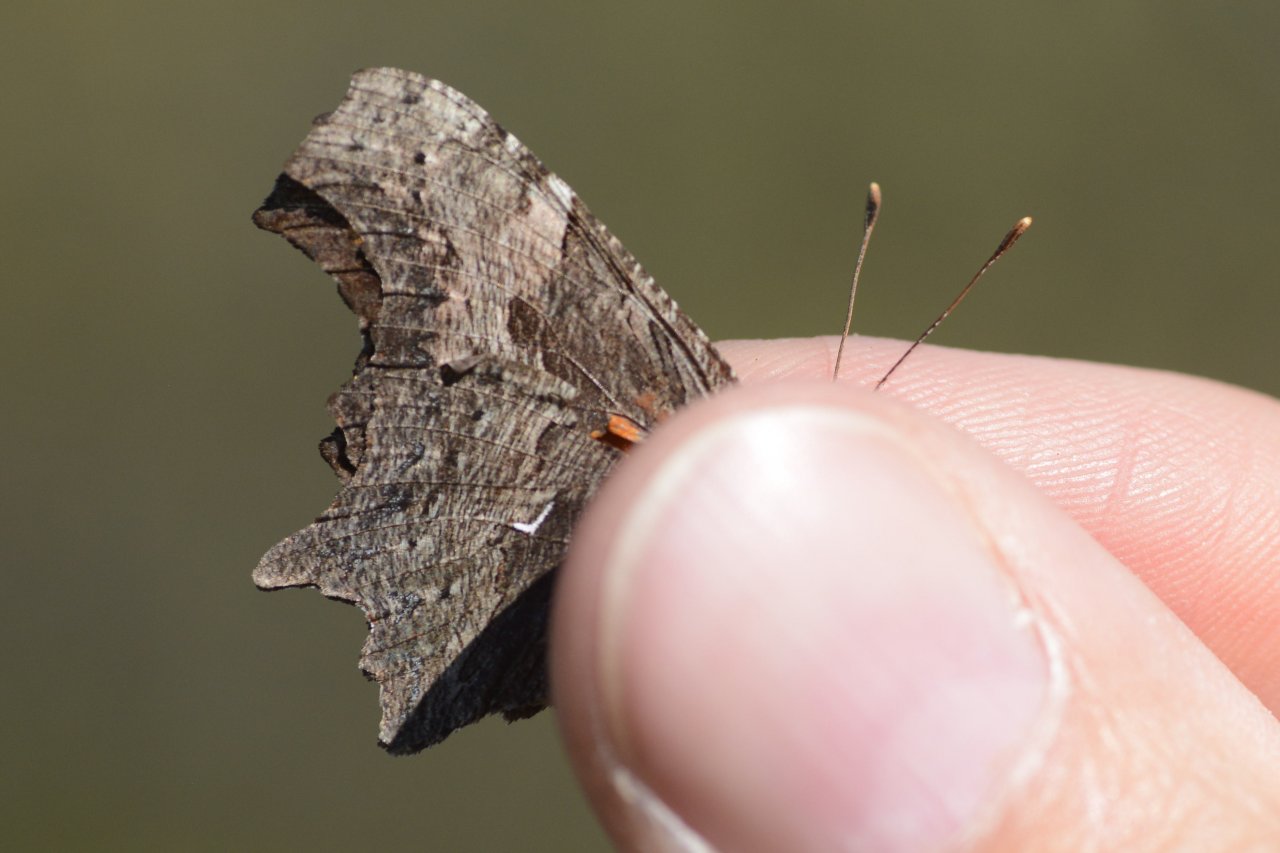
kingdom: Animalia
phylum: Arthropoda
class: Insecta
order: Lepidoptera
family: Nymphalidae
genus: Polygonia
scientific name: Polygonia progne
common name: Gray Comma
